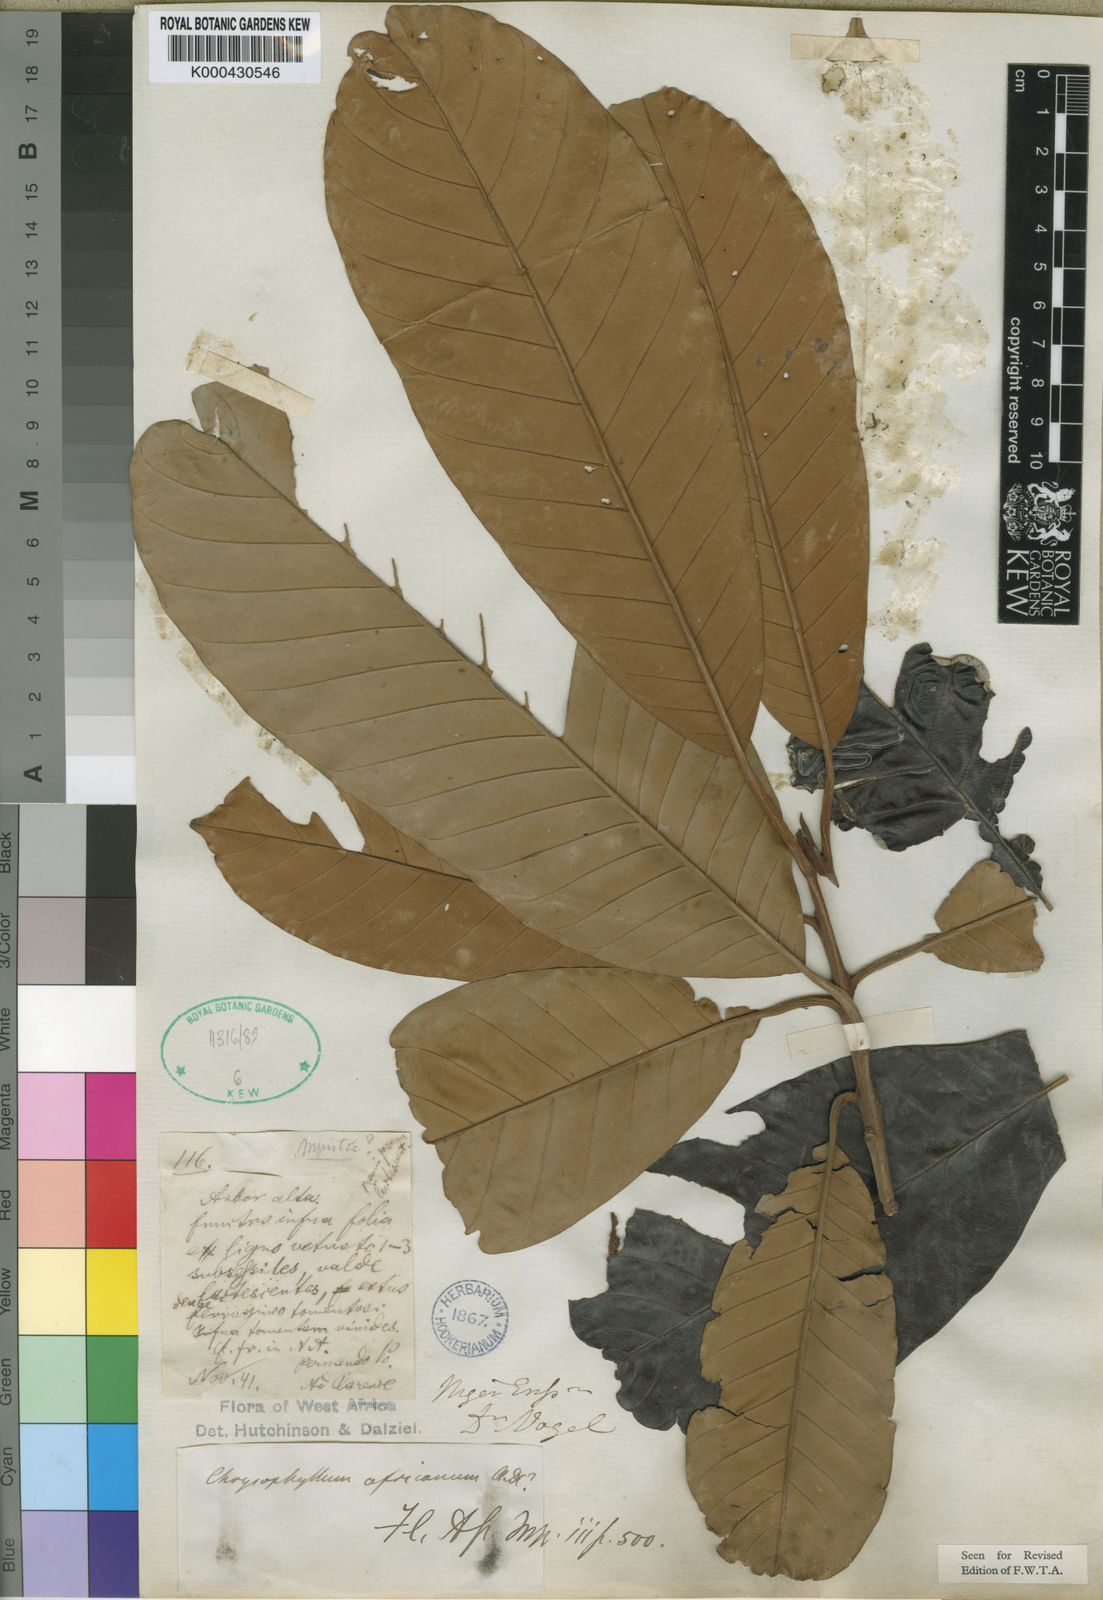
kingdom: Plantae
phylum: Tracheophyta
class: Magnoliopsida
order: Ericales
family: Sapotaceae
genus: Gambeya
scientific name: Gambeya africana
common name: African star apple
